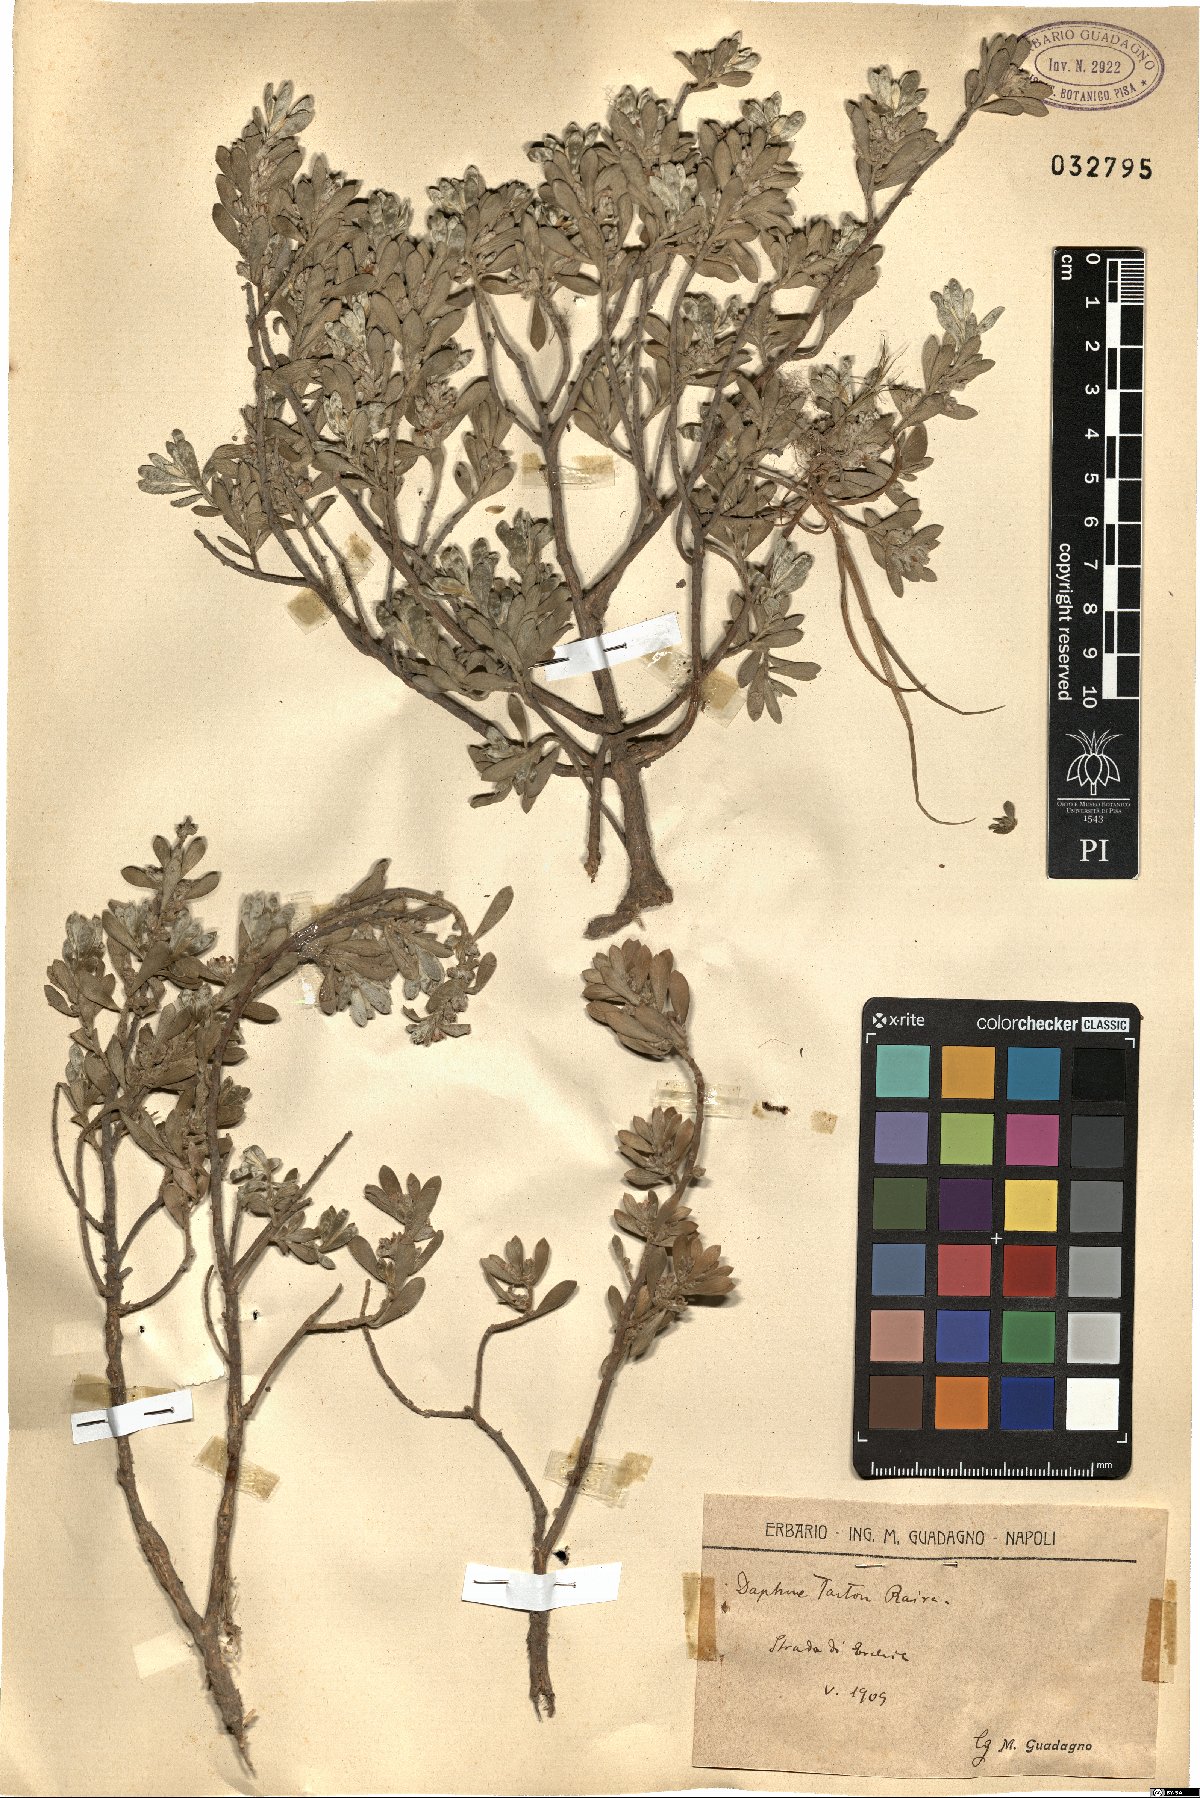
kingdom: Plantae
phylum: Tracheophyta
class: Magnoliopsida
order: Malvales
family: Thymelaeaceae
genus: Thymelaea
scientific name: Thymelaea tartonraira
